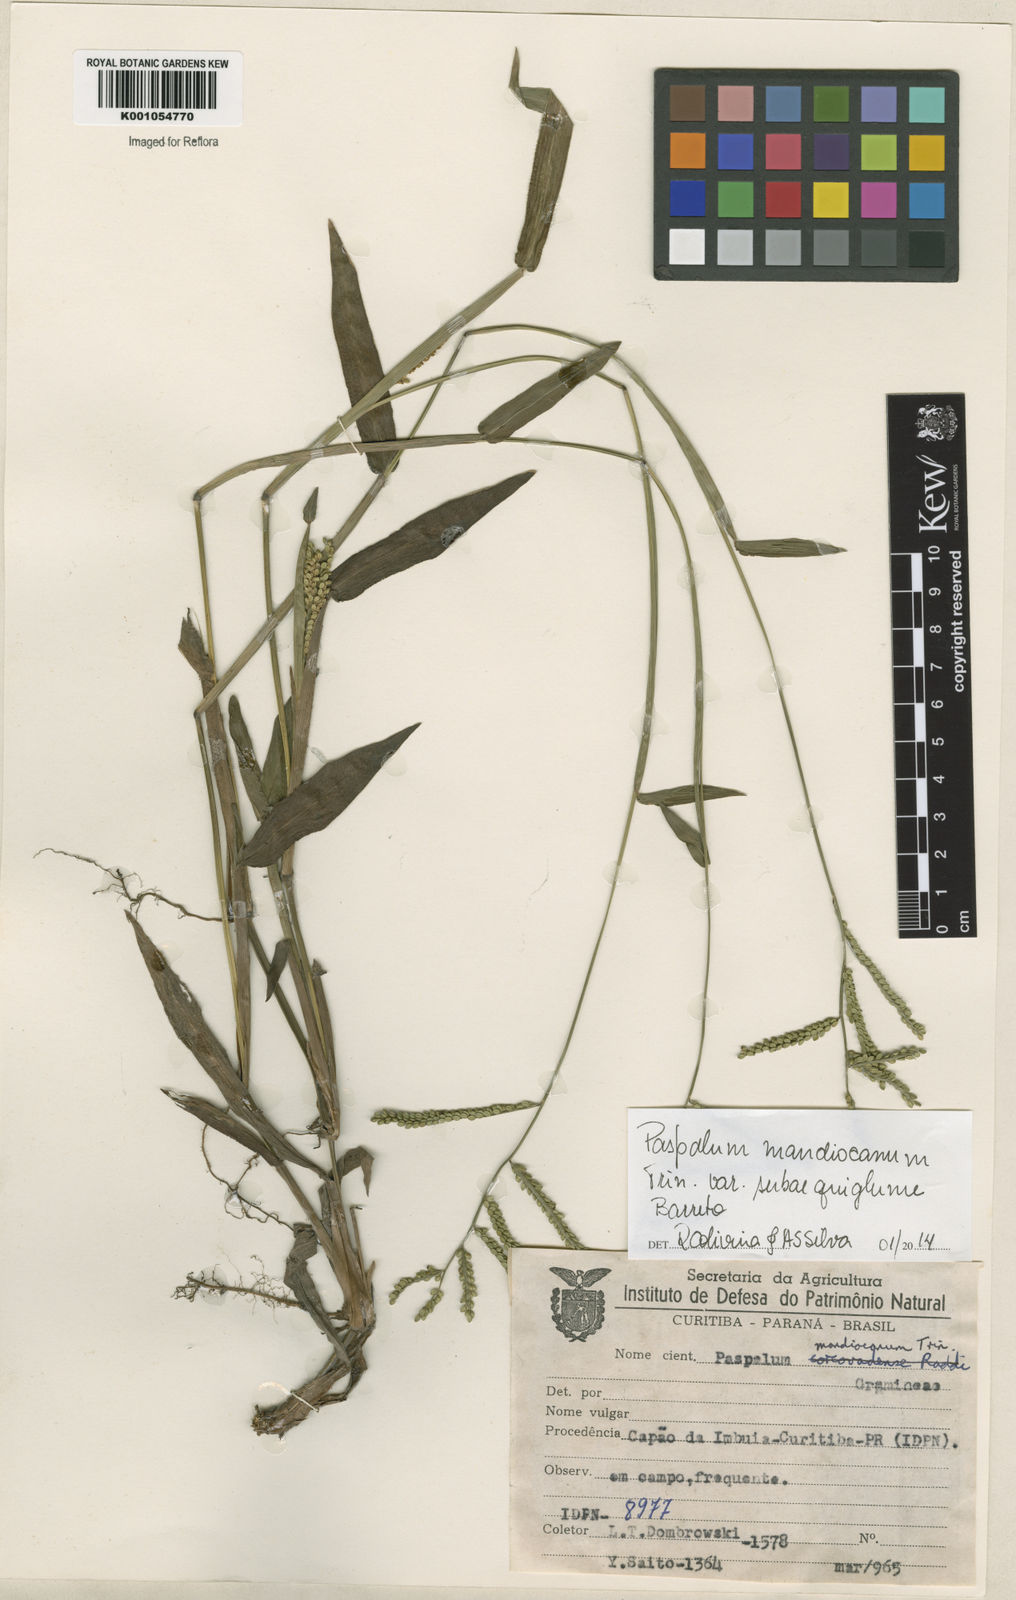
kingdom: Plantae
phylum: Tracheophyta
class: Liliopsida
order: Poales
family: Poaceae
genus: Paspalum
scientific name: Paspalum mandiocanum
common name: Paspalum
